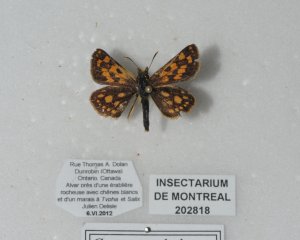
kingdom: Animalia
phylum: Arthropoda
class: Insecta
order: Lepidoptera
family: Hesperiidae
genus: Carterocephalus
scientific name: Carterocephalus palaemon
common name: Chequered Skipper
